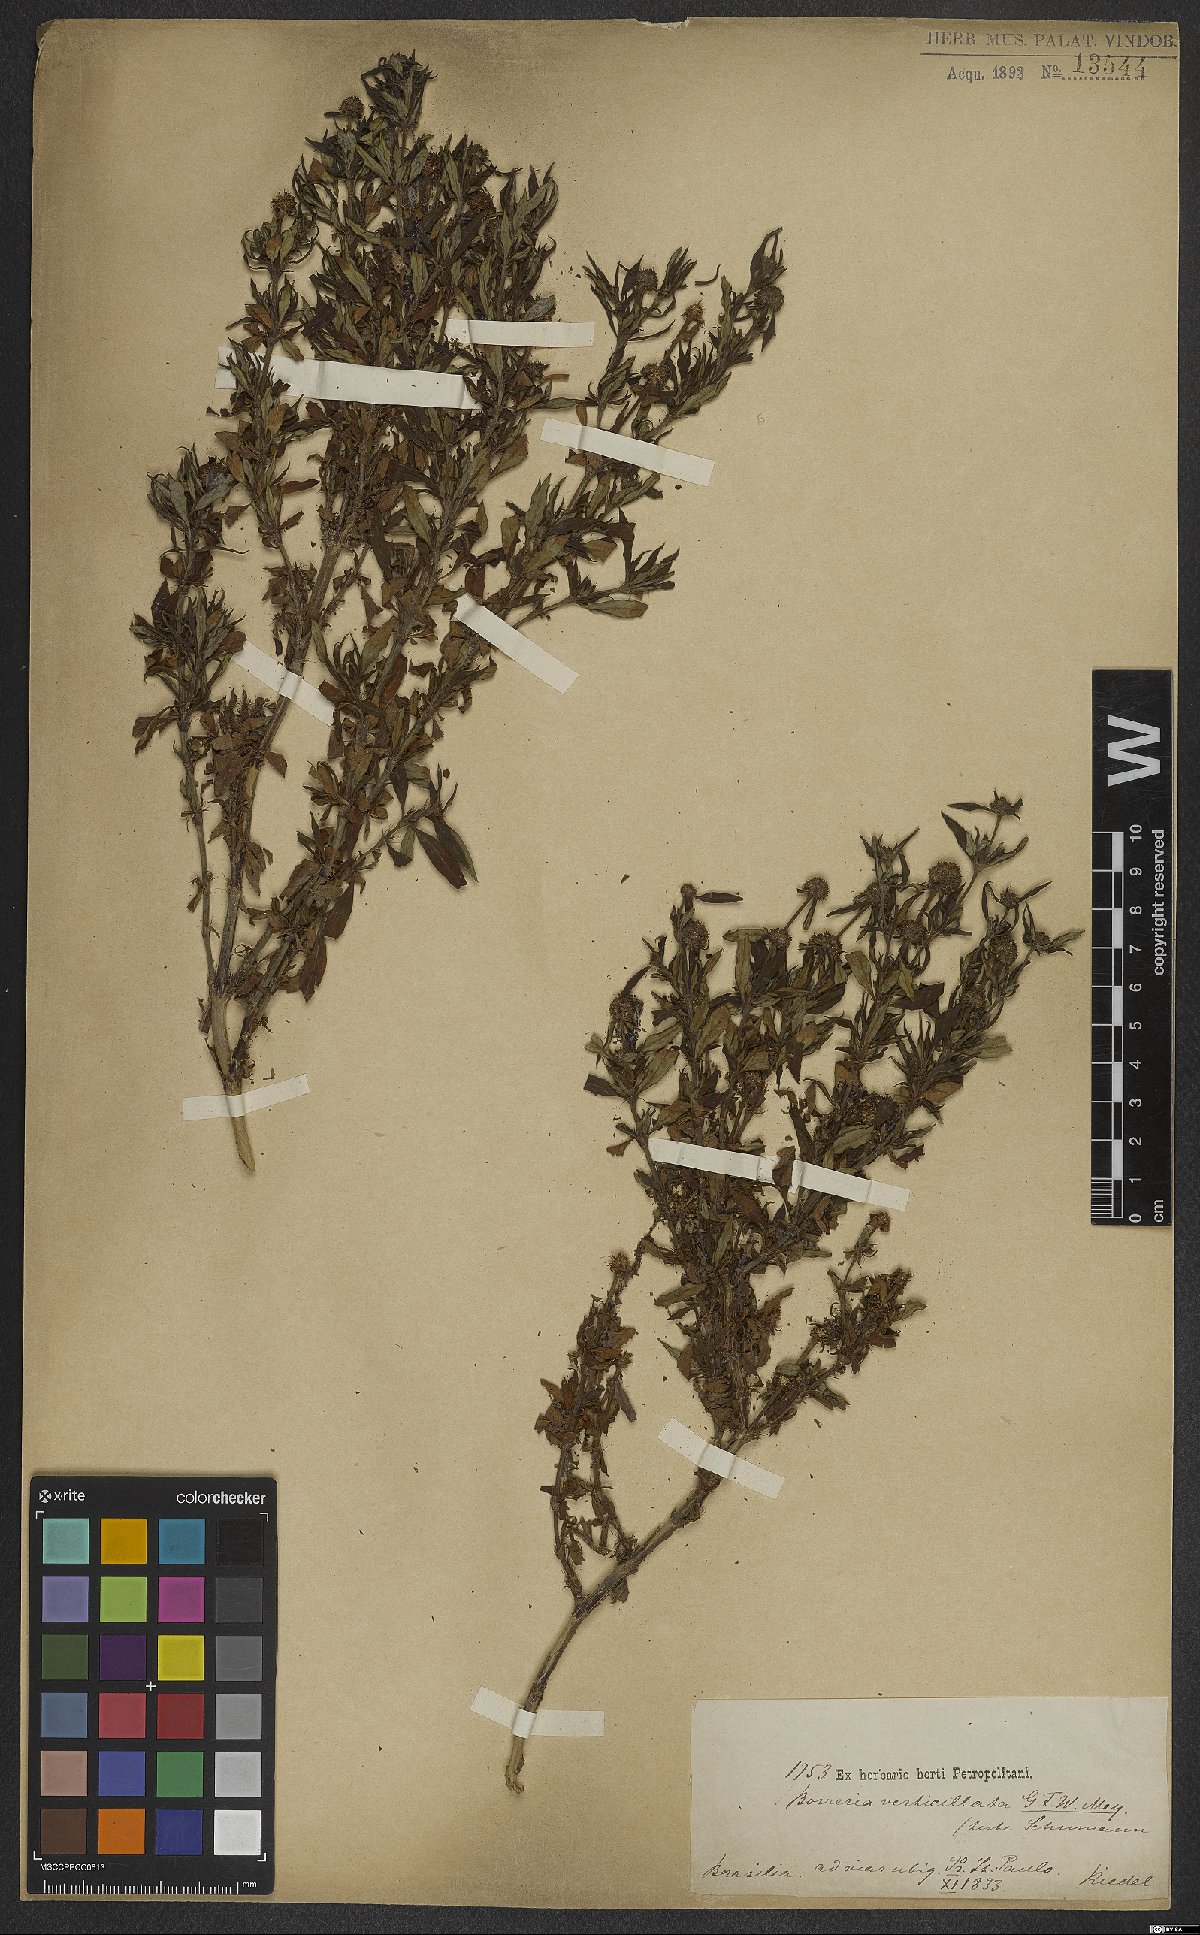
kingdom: Plantae
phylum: Tracheophyta
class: Magnoliopsida
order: Gentianales
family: Rubiaceae
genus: Spermacoce
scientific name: Spermacoce verticillata
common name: Shrubby false buttonweed
